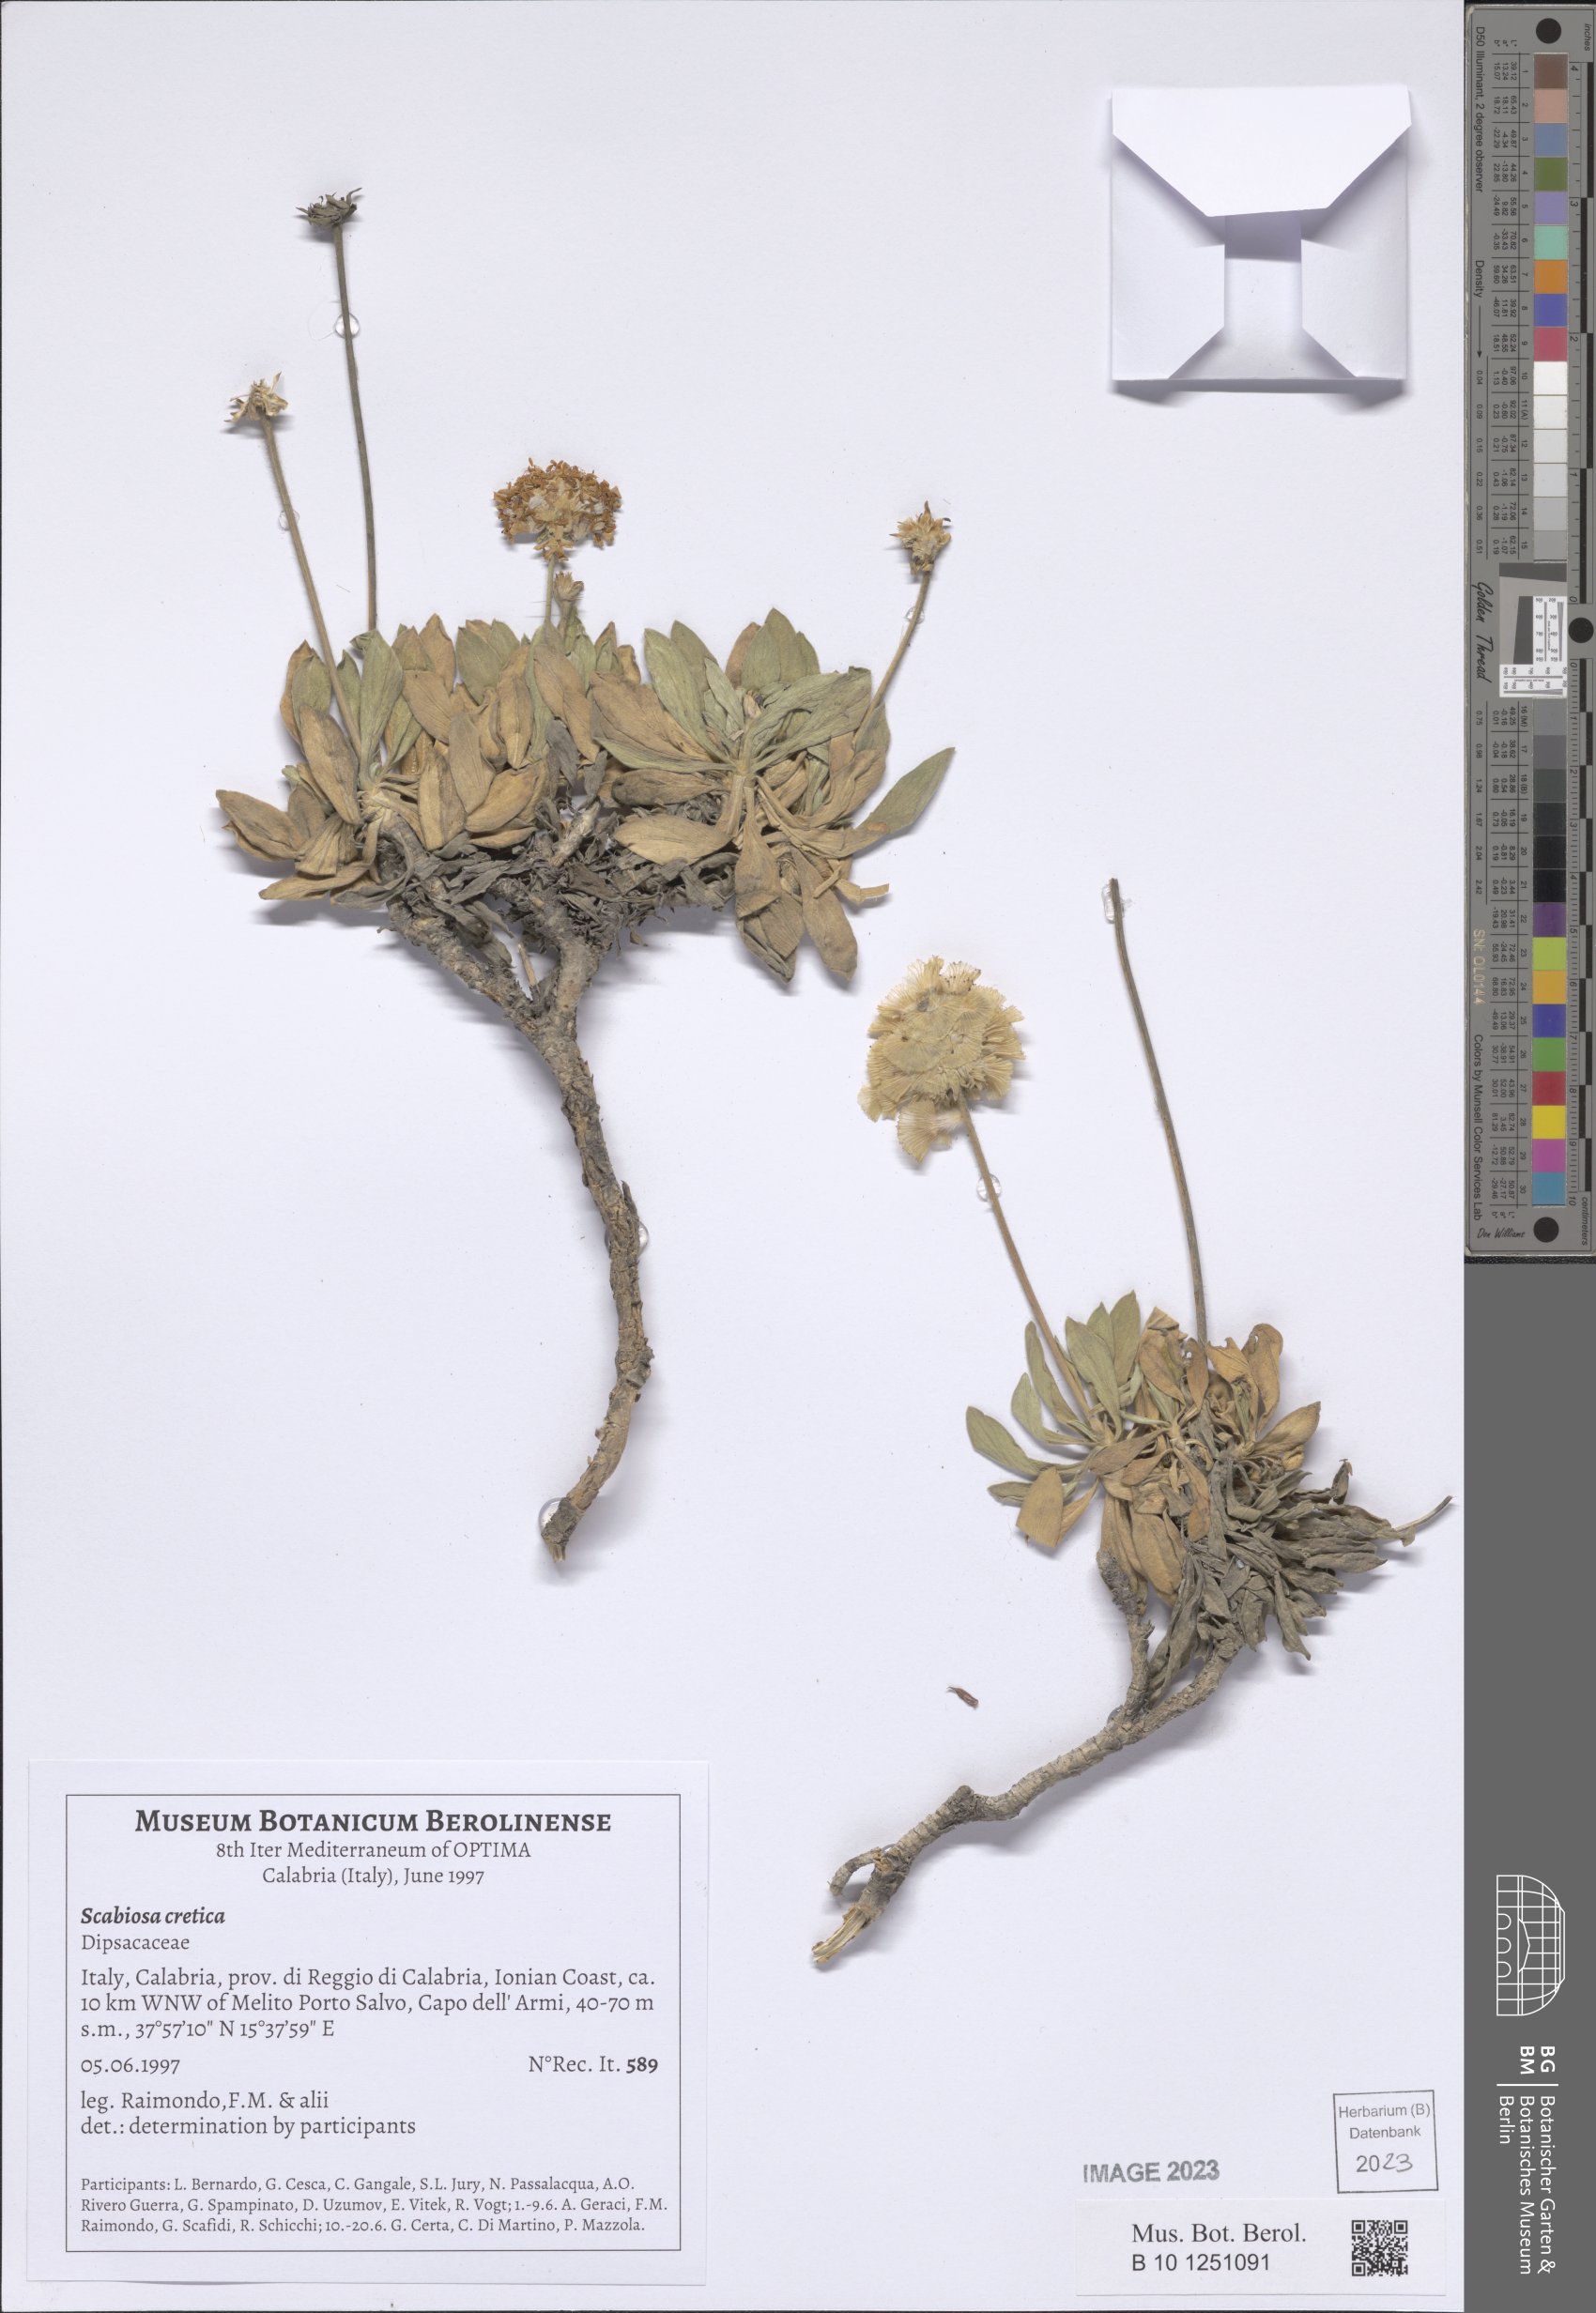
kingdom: Plantae
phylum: Tracheophyta
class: Magnoliopsida
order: Dipsacales
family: Caprifoliaceae
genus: Lomelosia
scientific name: Lomelosia cretica
